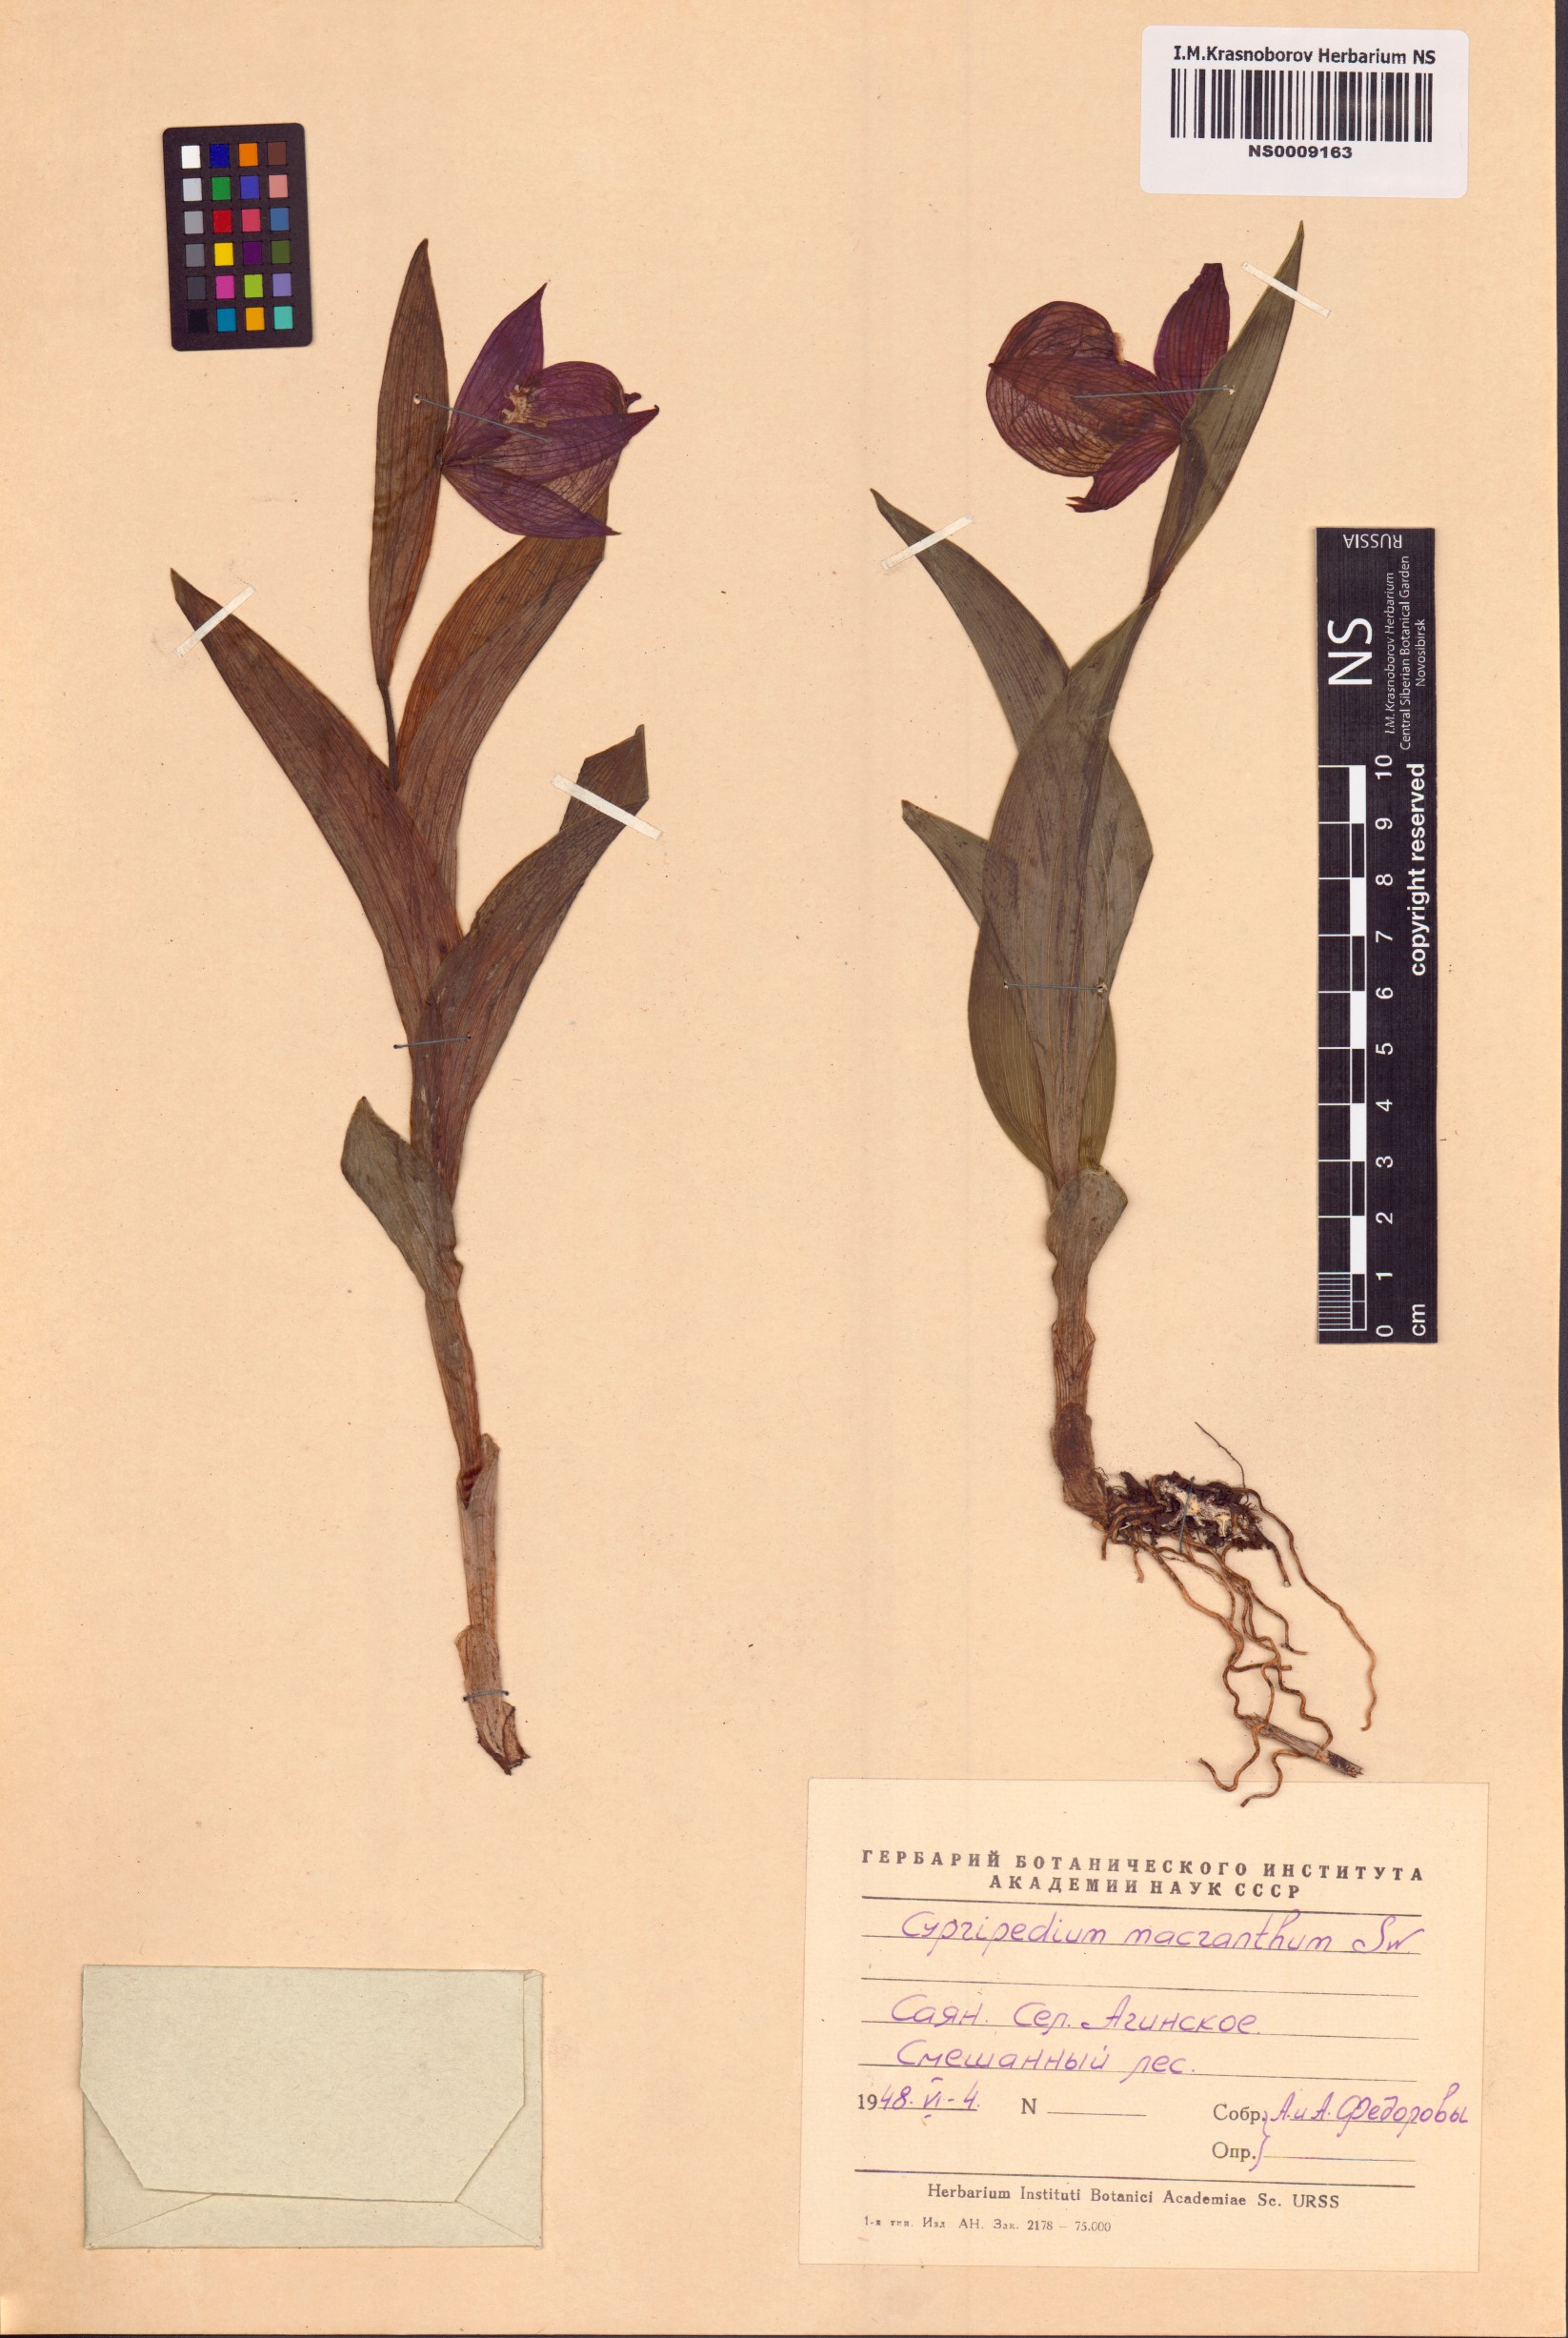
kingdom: Plantae
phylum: Tracheophyta
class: Liliopsida
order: Asparagales
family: Orchidaceae
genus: Cypripedium
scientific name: Cypripedium macranthos
